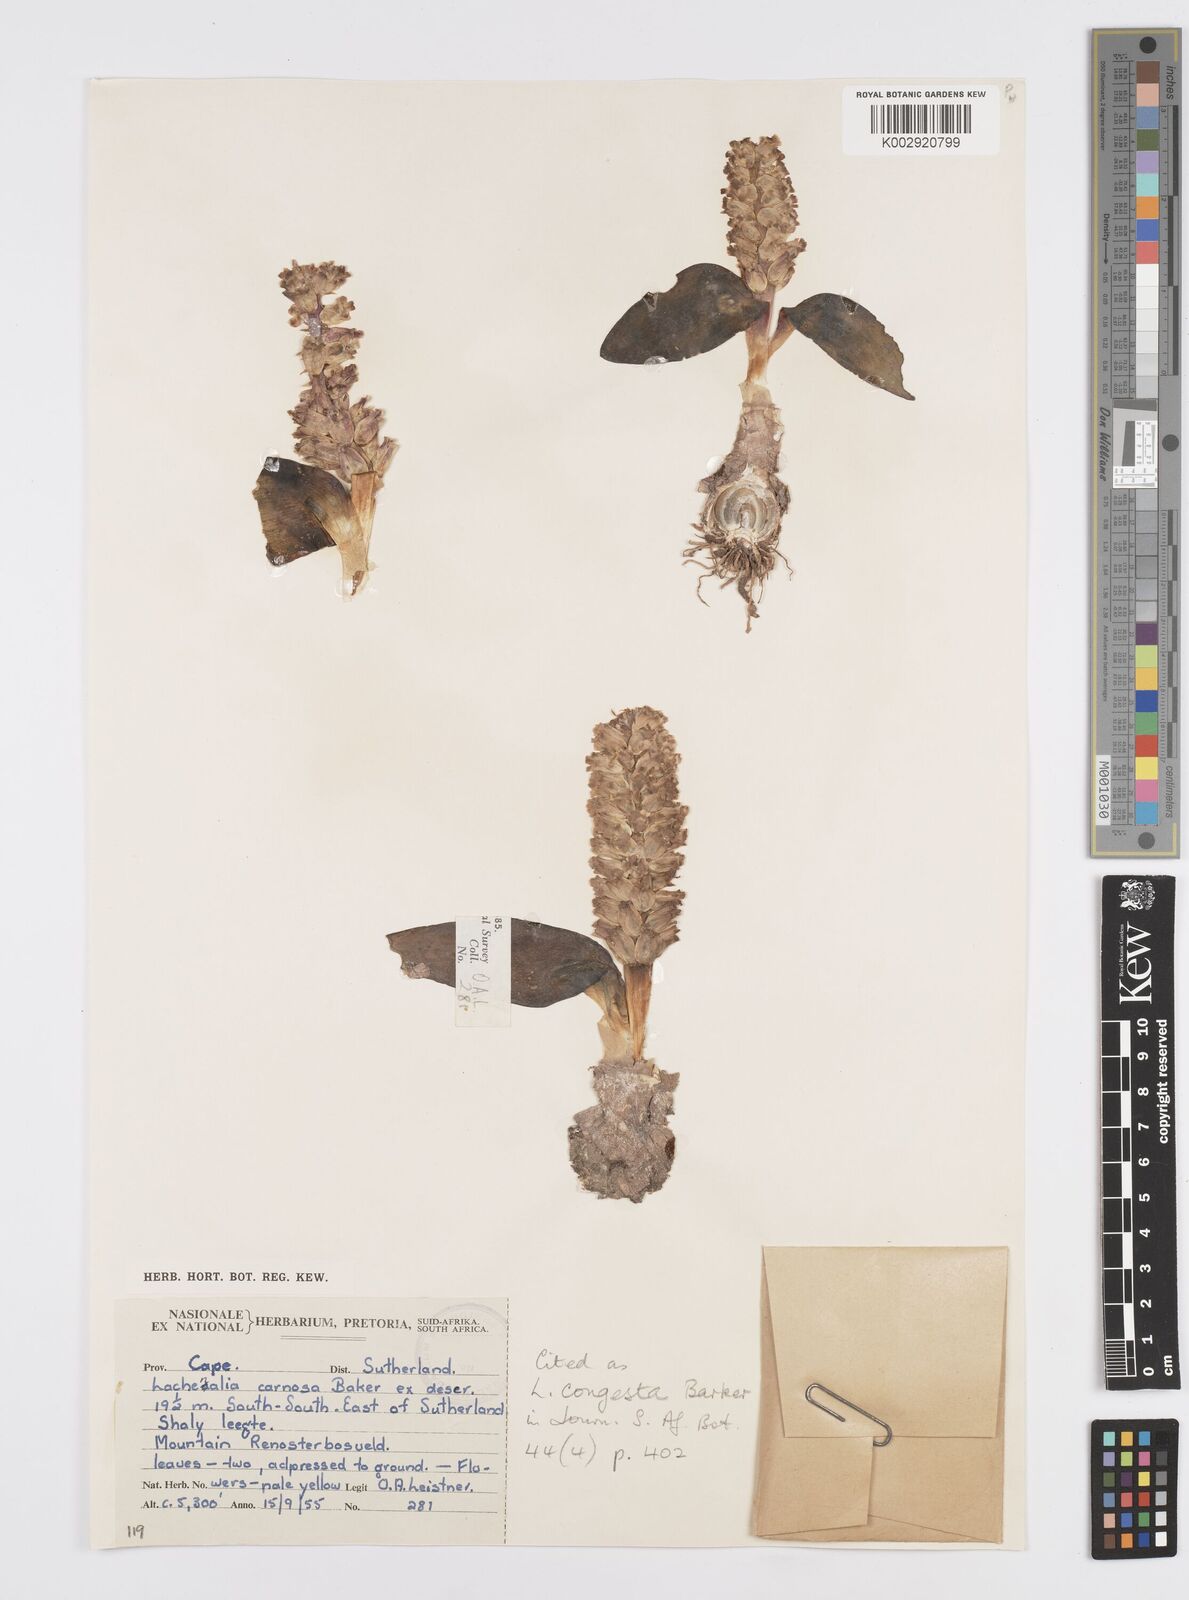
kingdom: Plantae
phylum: Tracheophyta
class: Liliopsida
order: Asparagales
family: Asparagaceae
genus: Lachenalia
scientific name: Lachenalia congesta
